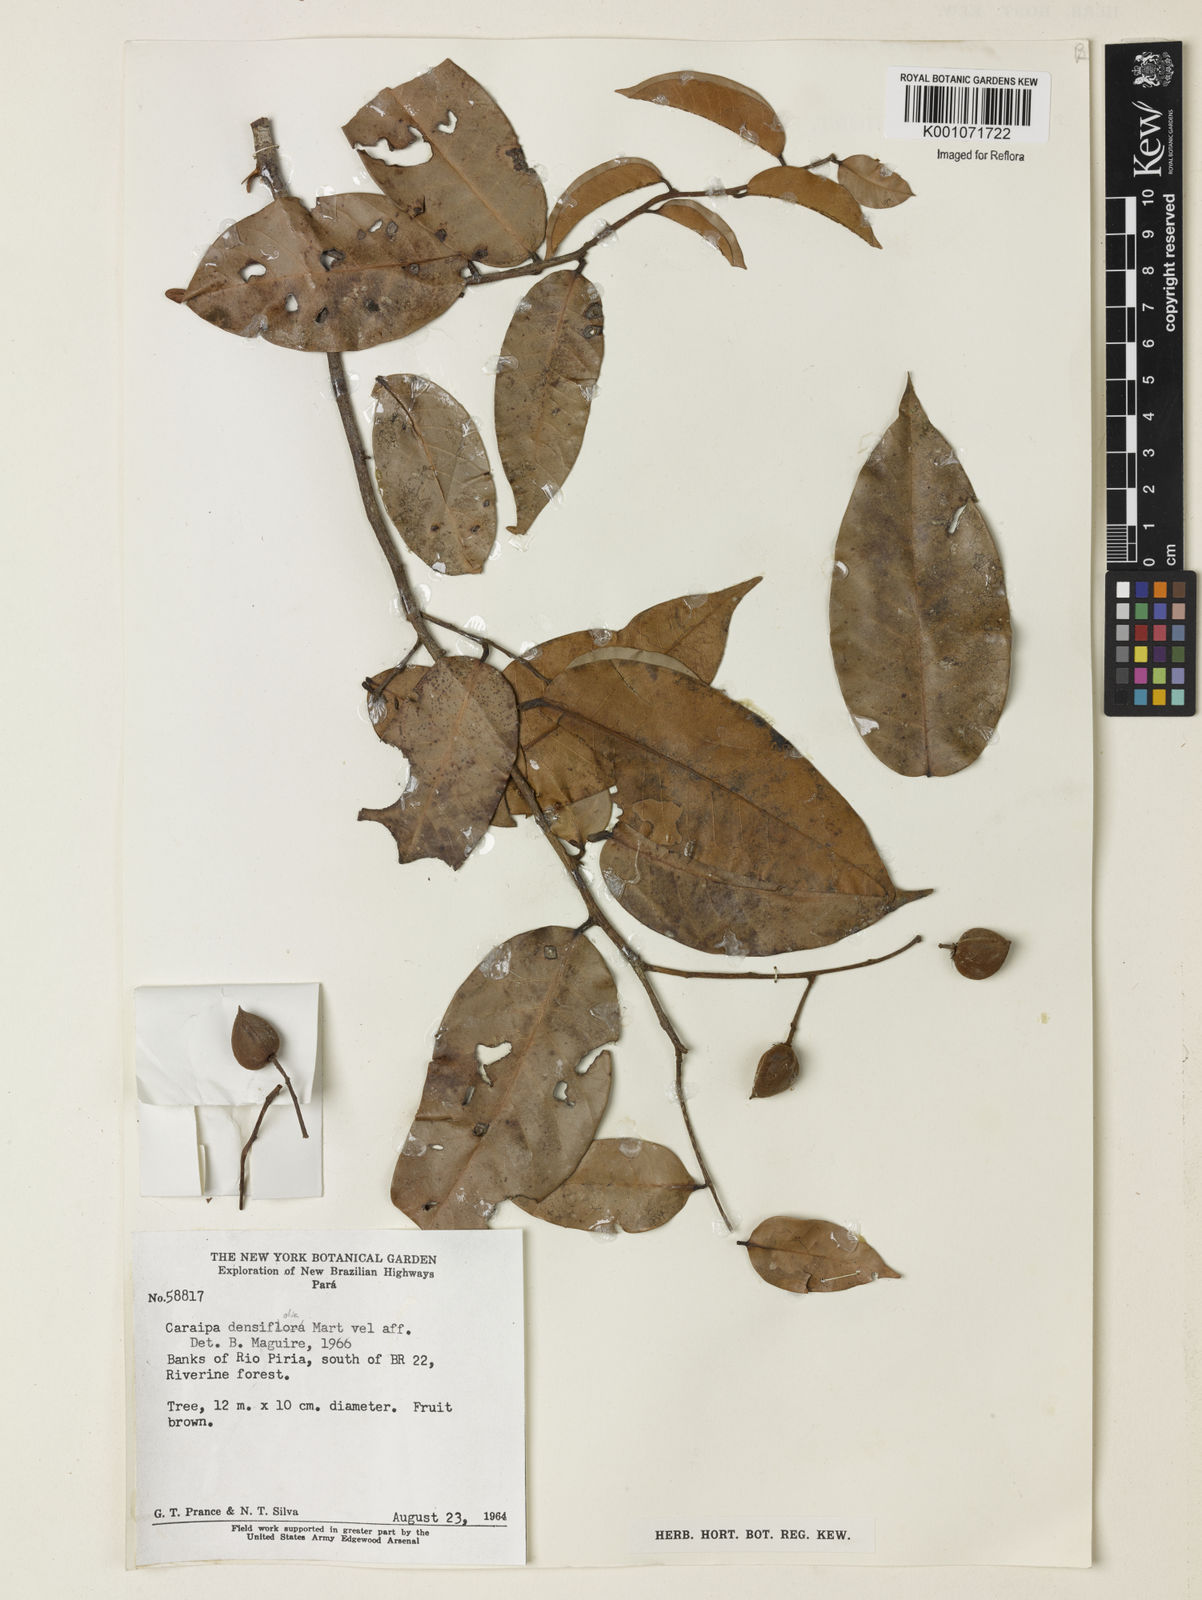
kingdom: Plantae
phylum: Tracheophyta
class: Magnoliopsida
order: Malpighiales
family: Calophyllaceae
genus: Caraipa
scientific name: Caraipa densifolia
